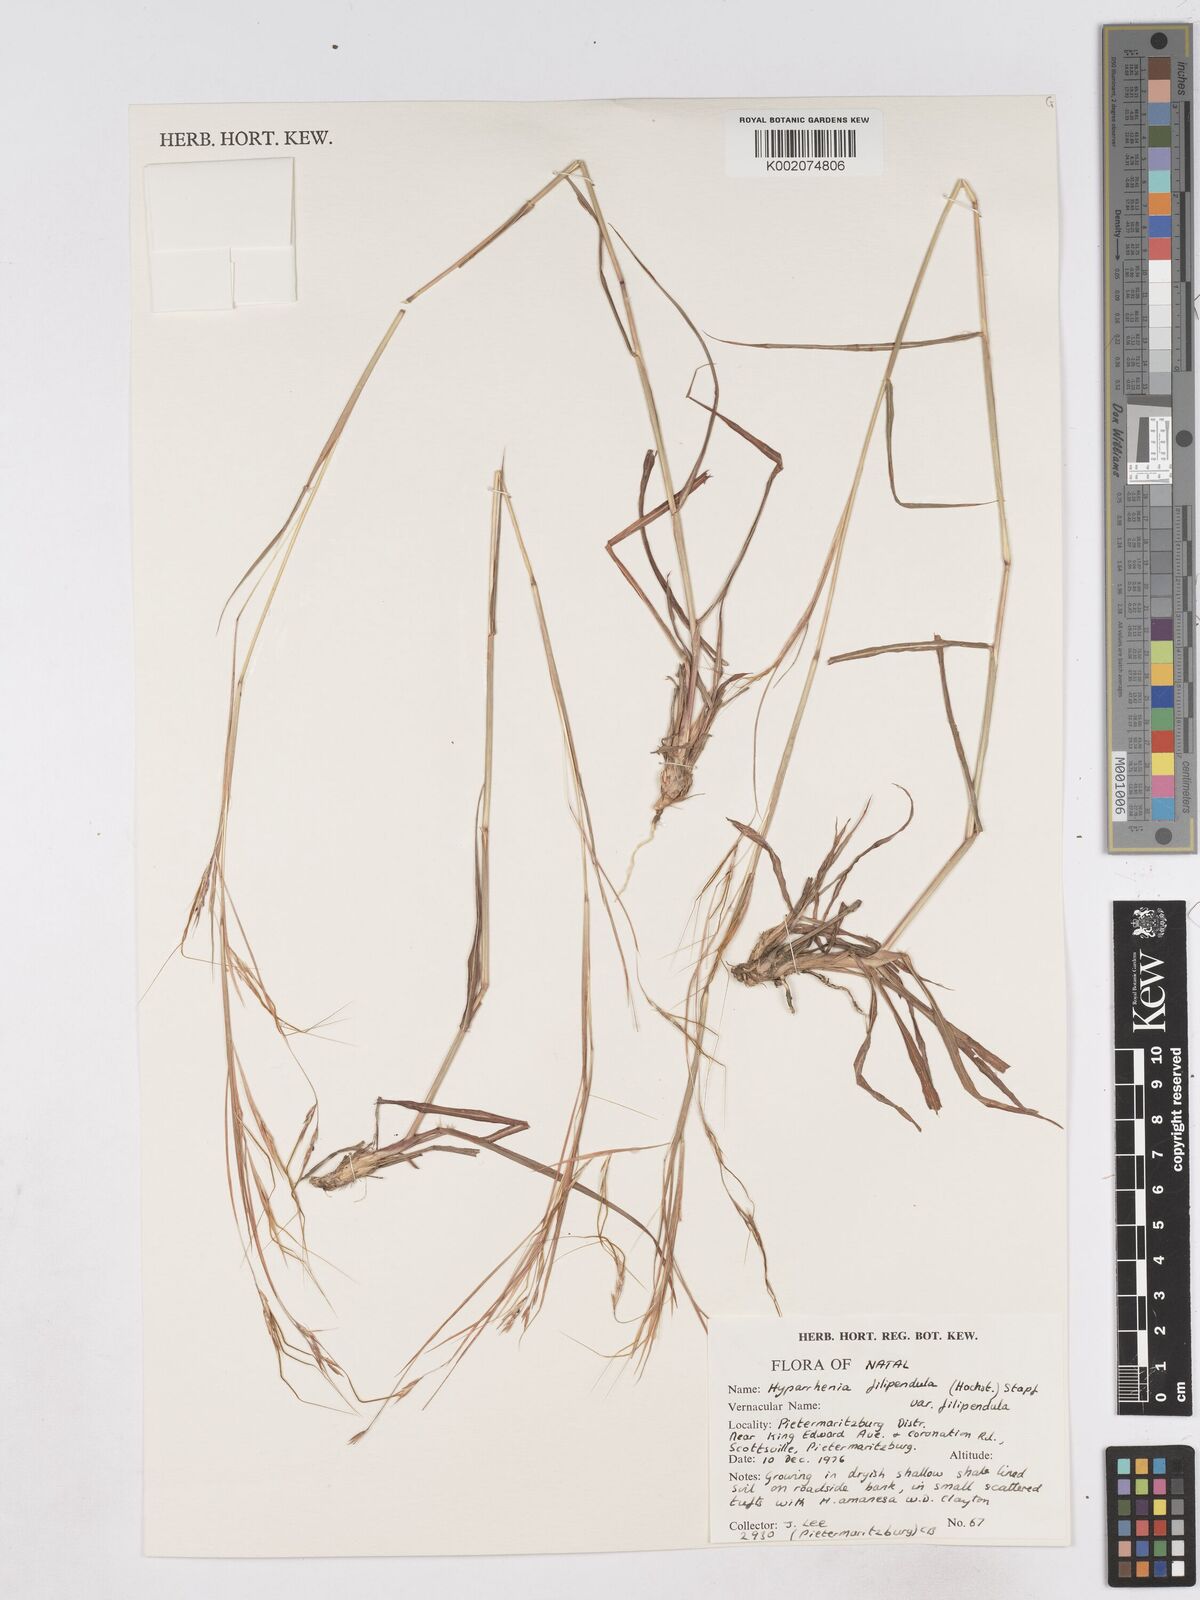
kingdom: Plantae
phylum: Tracheophyta
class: Liliopsida
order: Poales
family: Poaceae
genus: Hyparrhenia
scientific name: Hyparrhenia filipendula
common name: Tambookie grass
